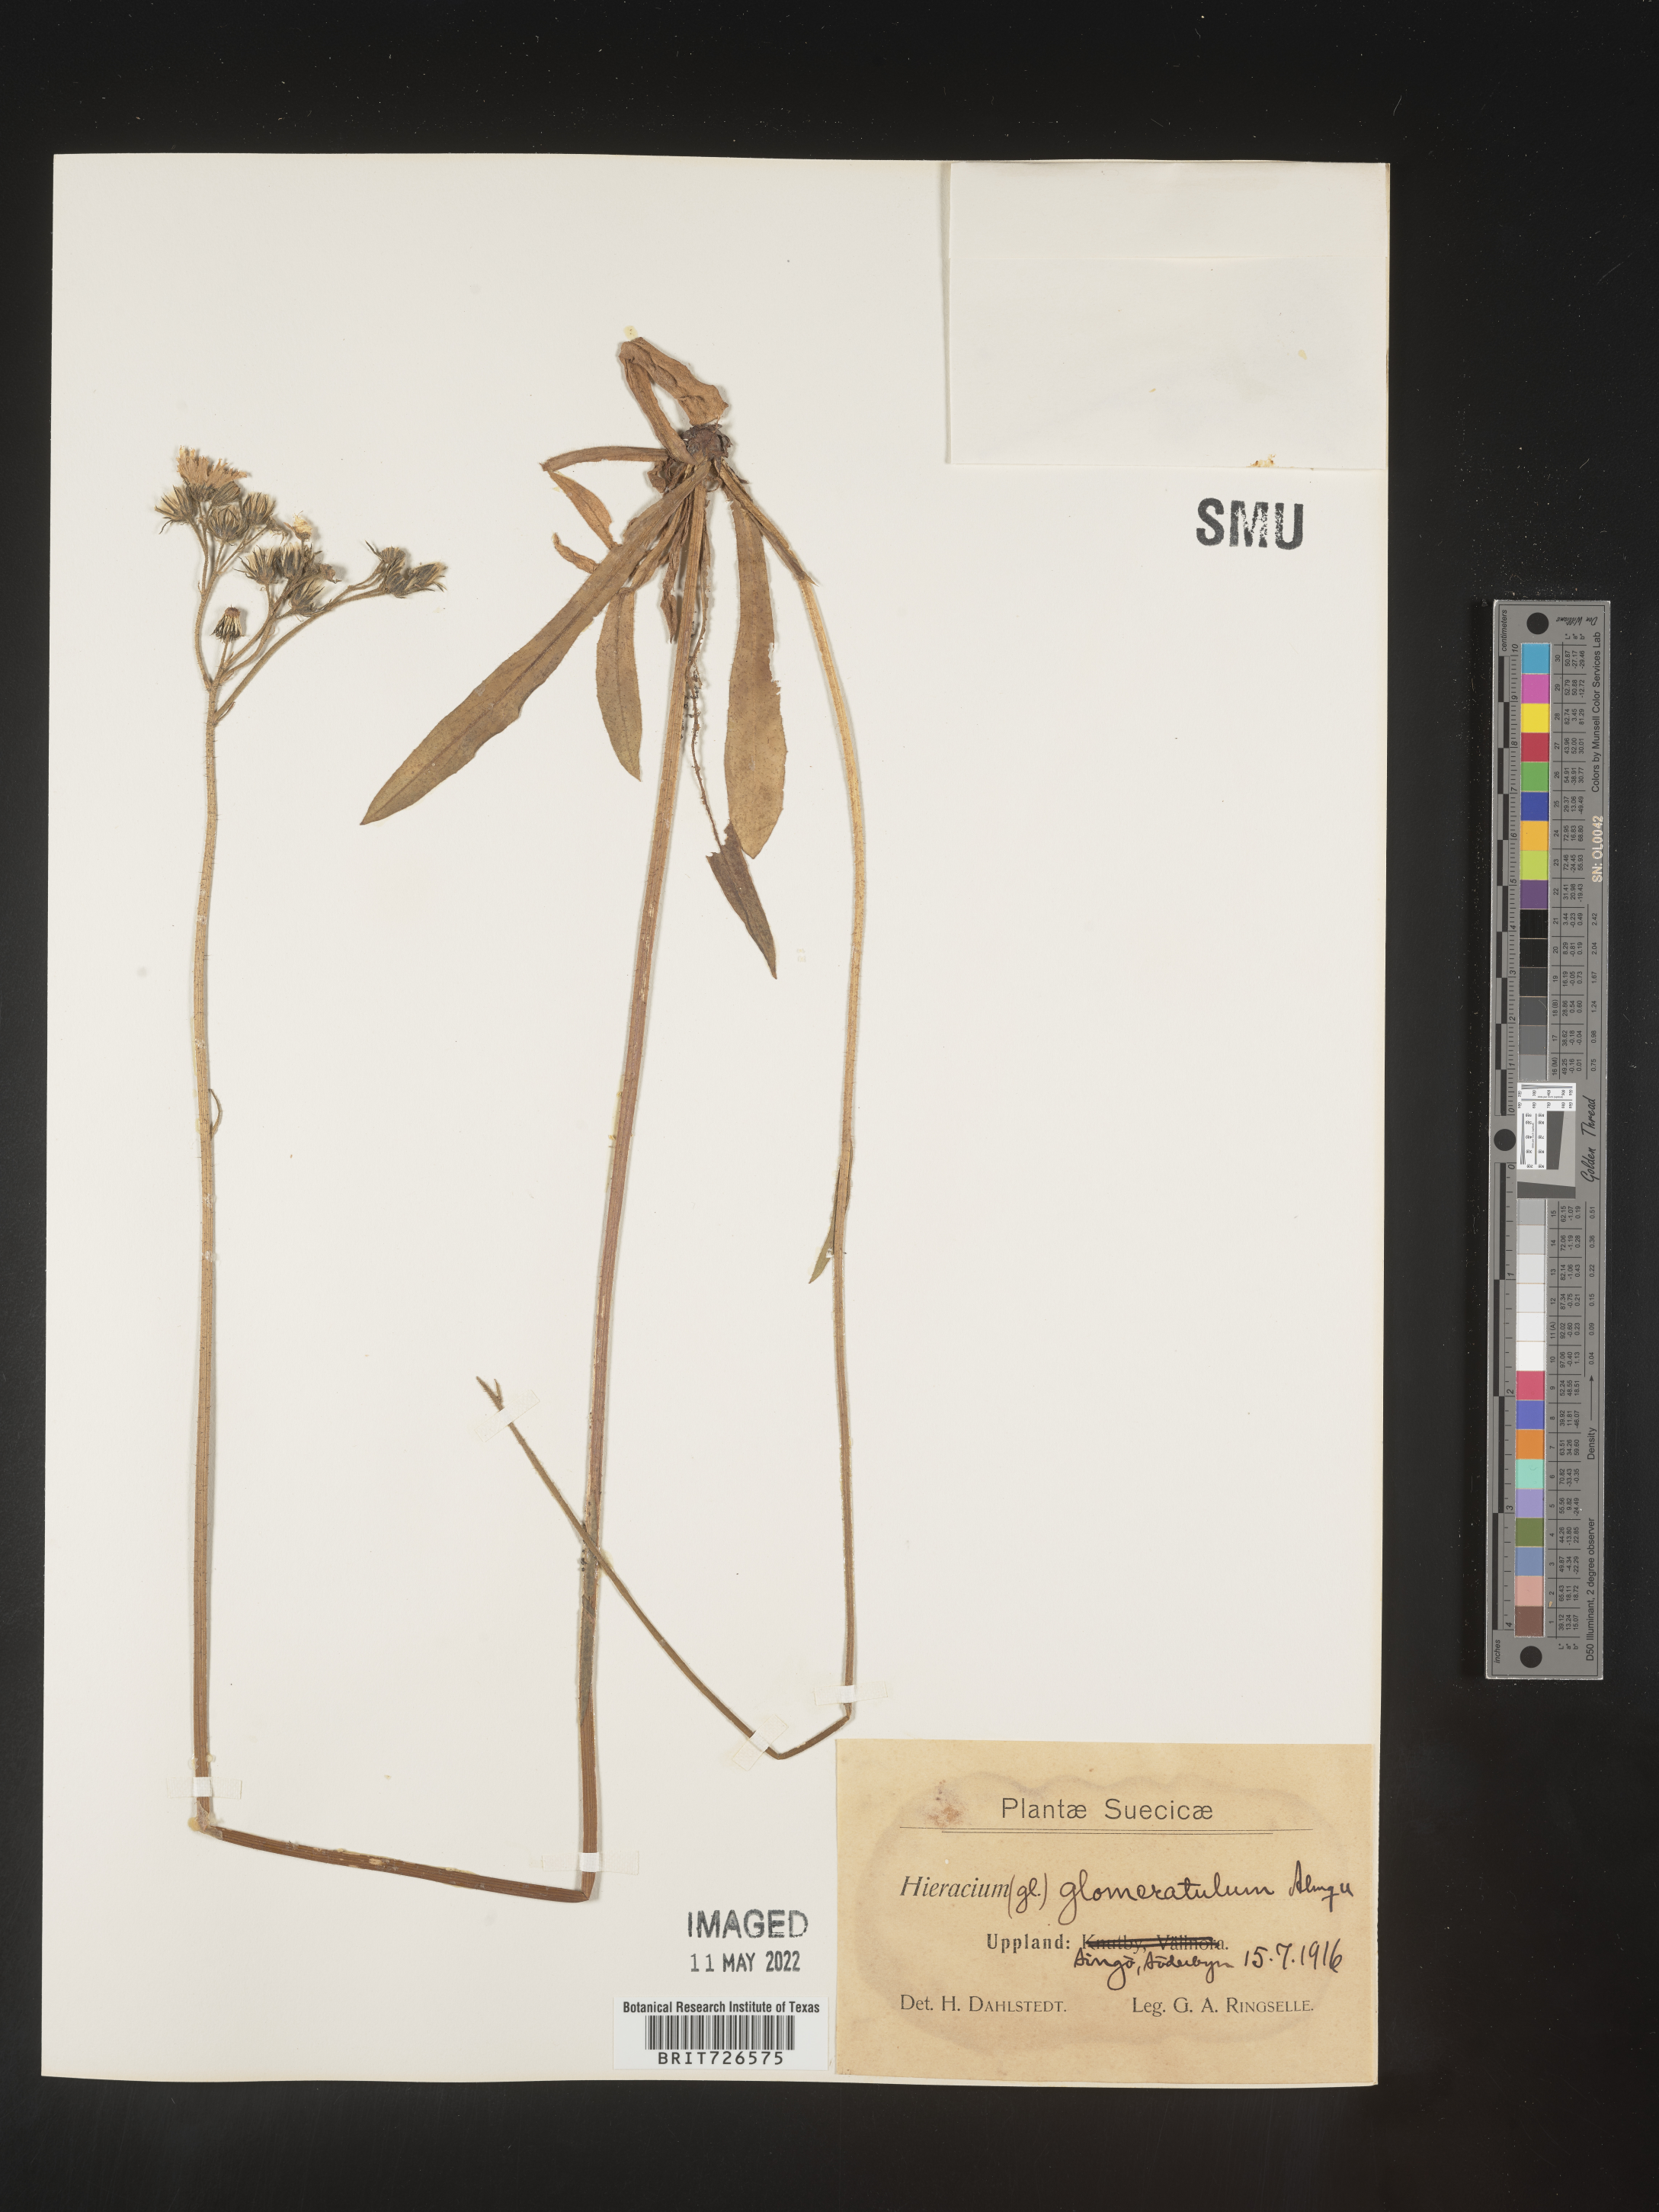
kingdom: Plantae
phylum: Tracheophyta
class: Magnoliopsida
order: Asterales
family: Asteraceae
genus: Hieracium
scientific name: Hieracium
